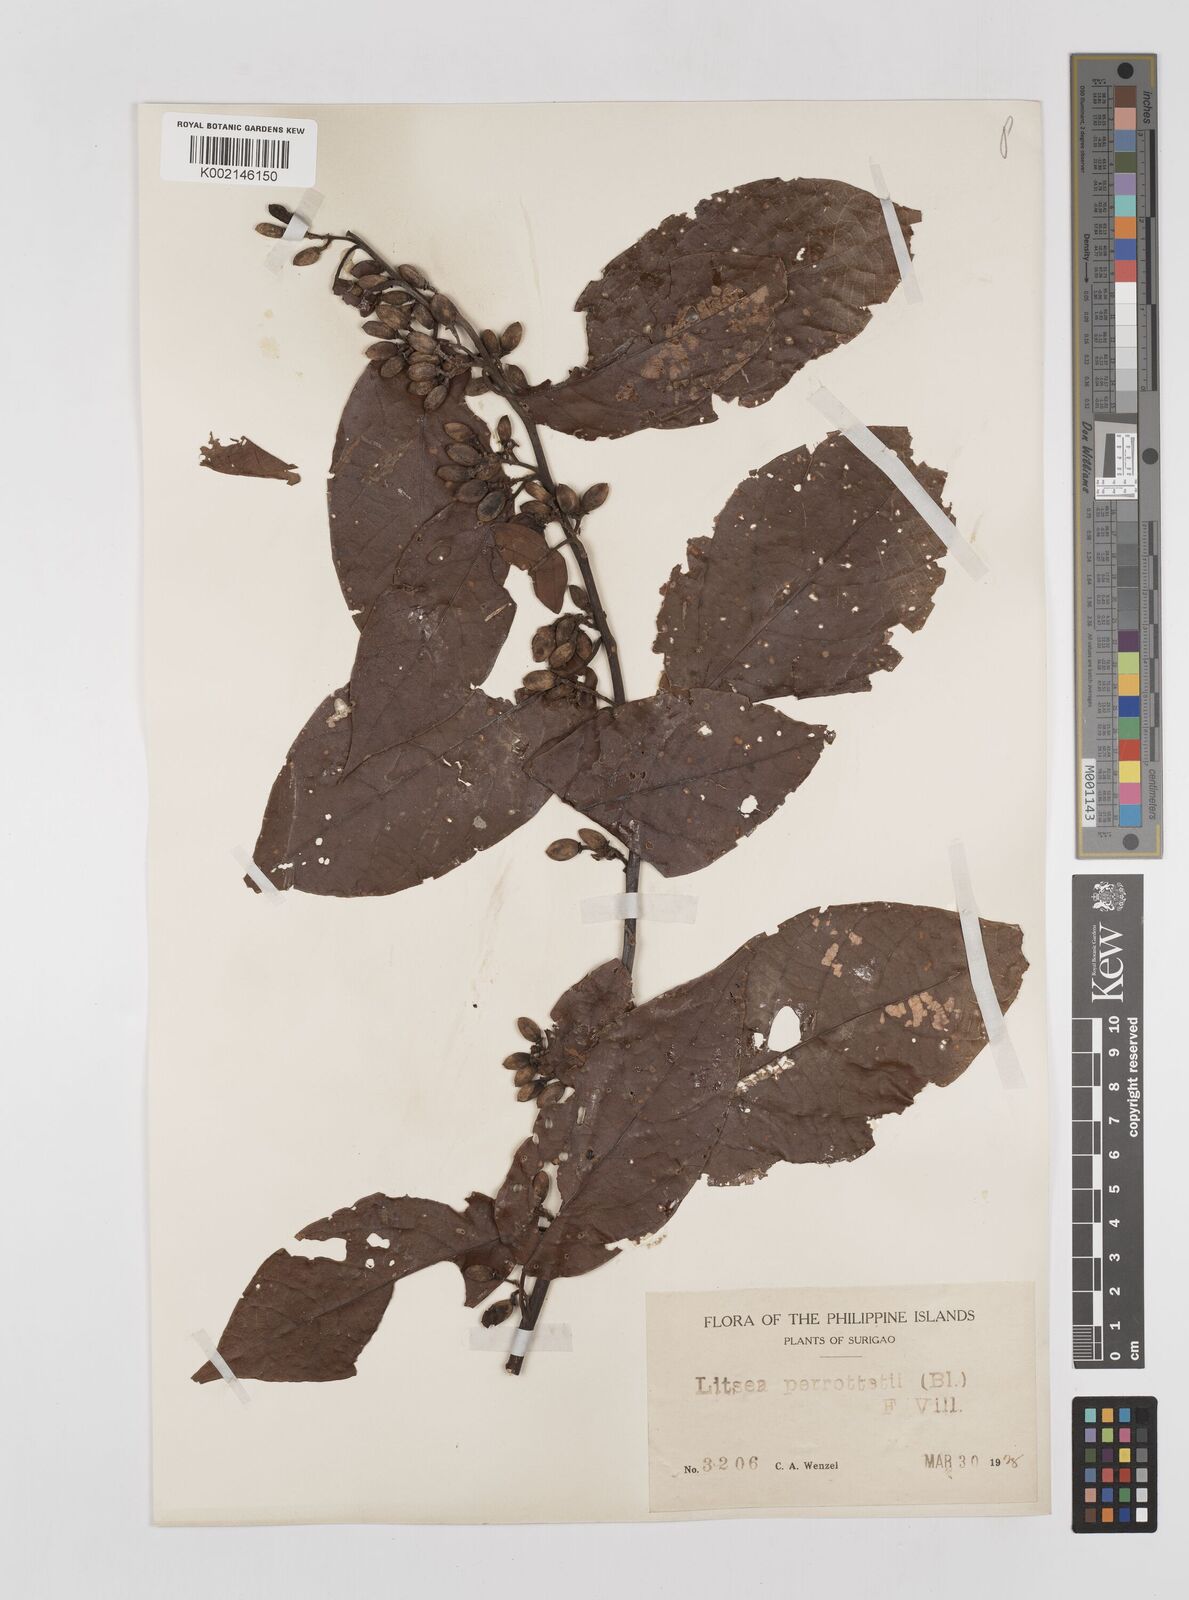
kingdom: Plantae
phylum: Tracheophyta
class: Magnoliopsida
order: Laurales
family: Lauraceae
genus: Litsea
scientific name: Litsea cordata
